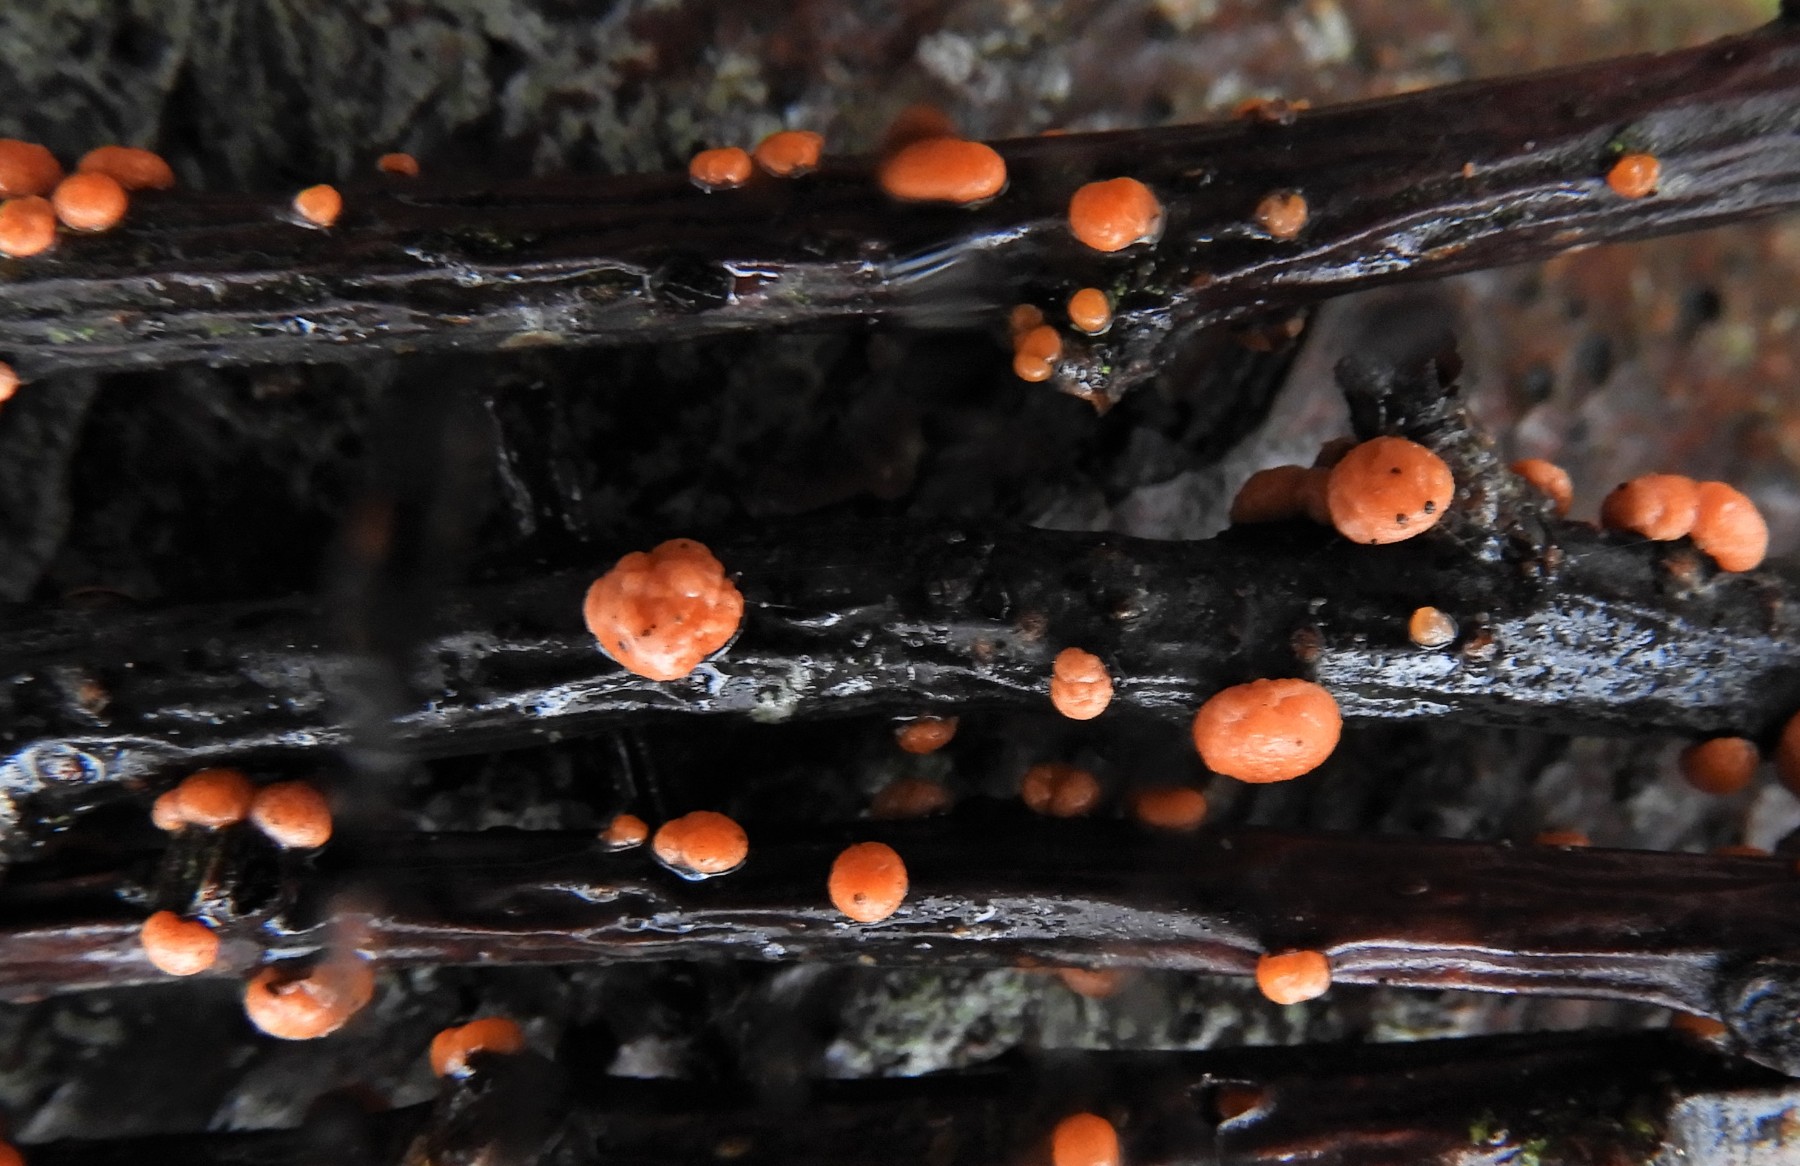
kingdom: Fungi
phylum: Ascomycota
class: Sordariomycetes
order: Hypocreales
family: Nectriaceae
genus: Nectria
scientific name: Nectria cinnabarina
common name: almindelig cinnobersvamp
